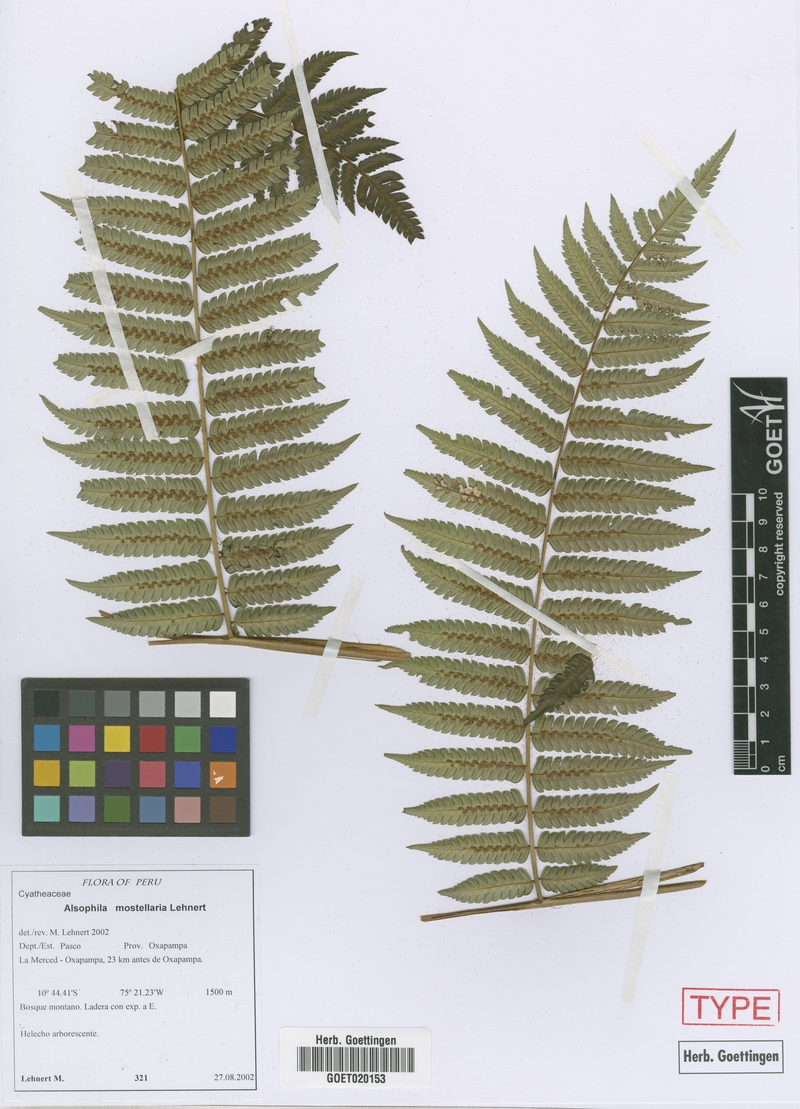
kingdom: Plantae
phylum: Tracheophyta
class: Polypodiopsida
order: Cyatheales
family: Cyatheaceae
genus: Alsophila
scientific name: Alsophila mostellaria
